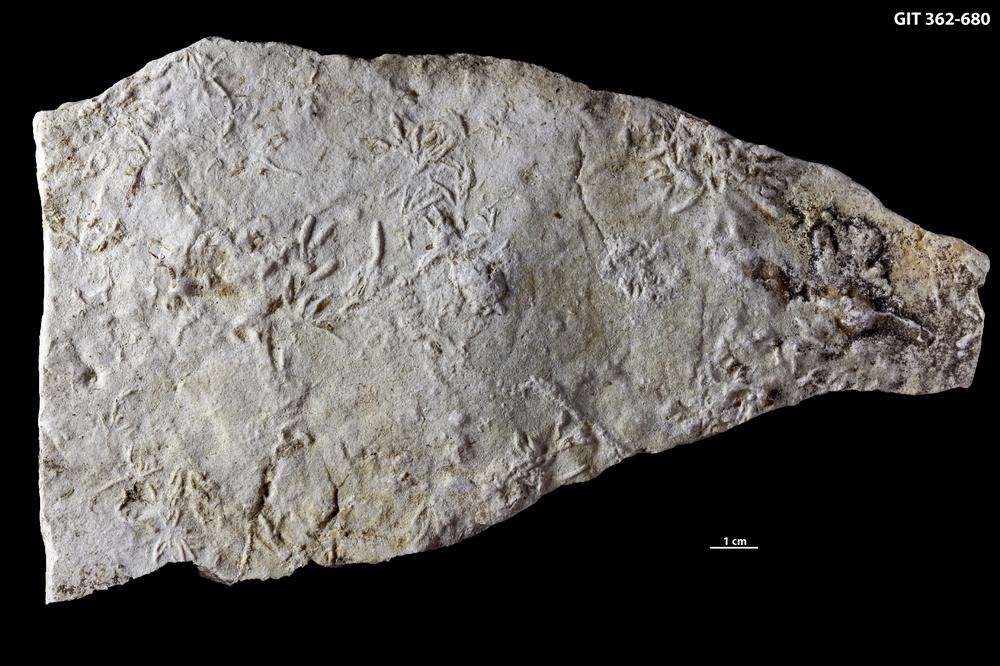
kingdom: Animalia
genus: Chondrites
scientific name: Chondrites
